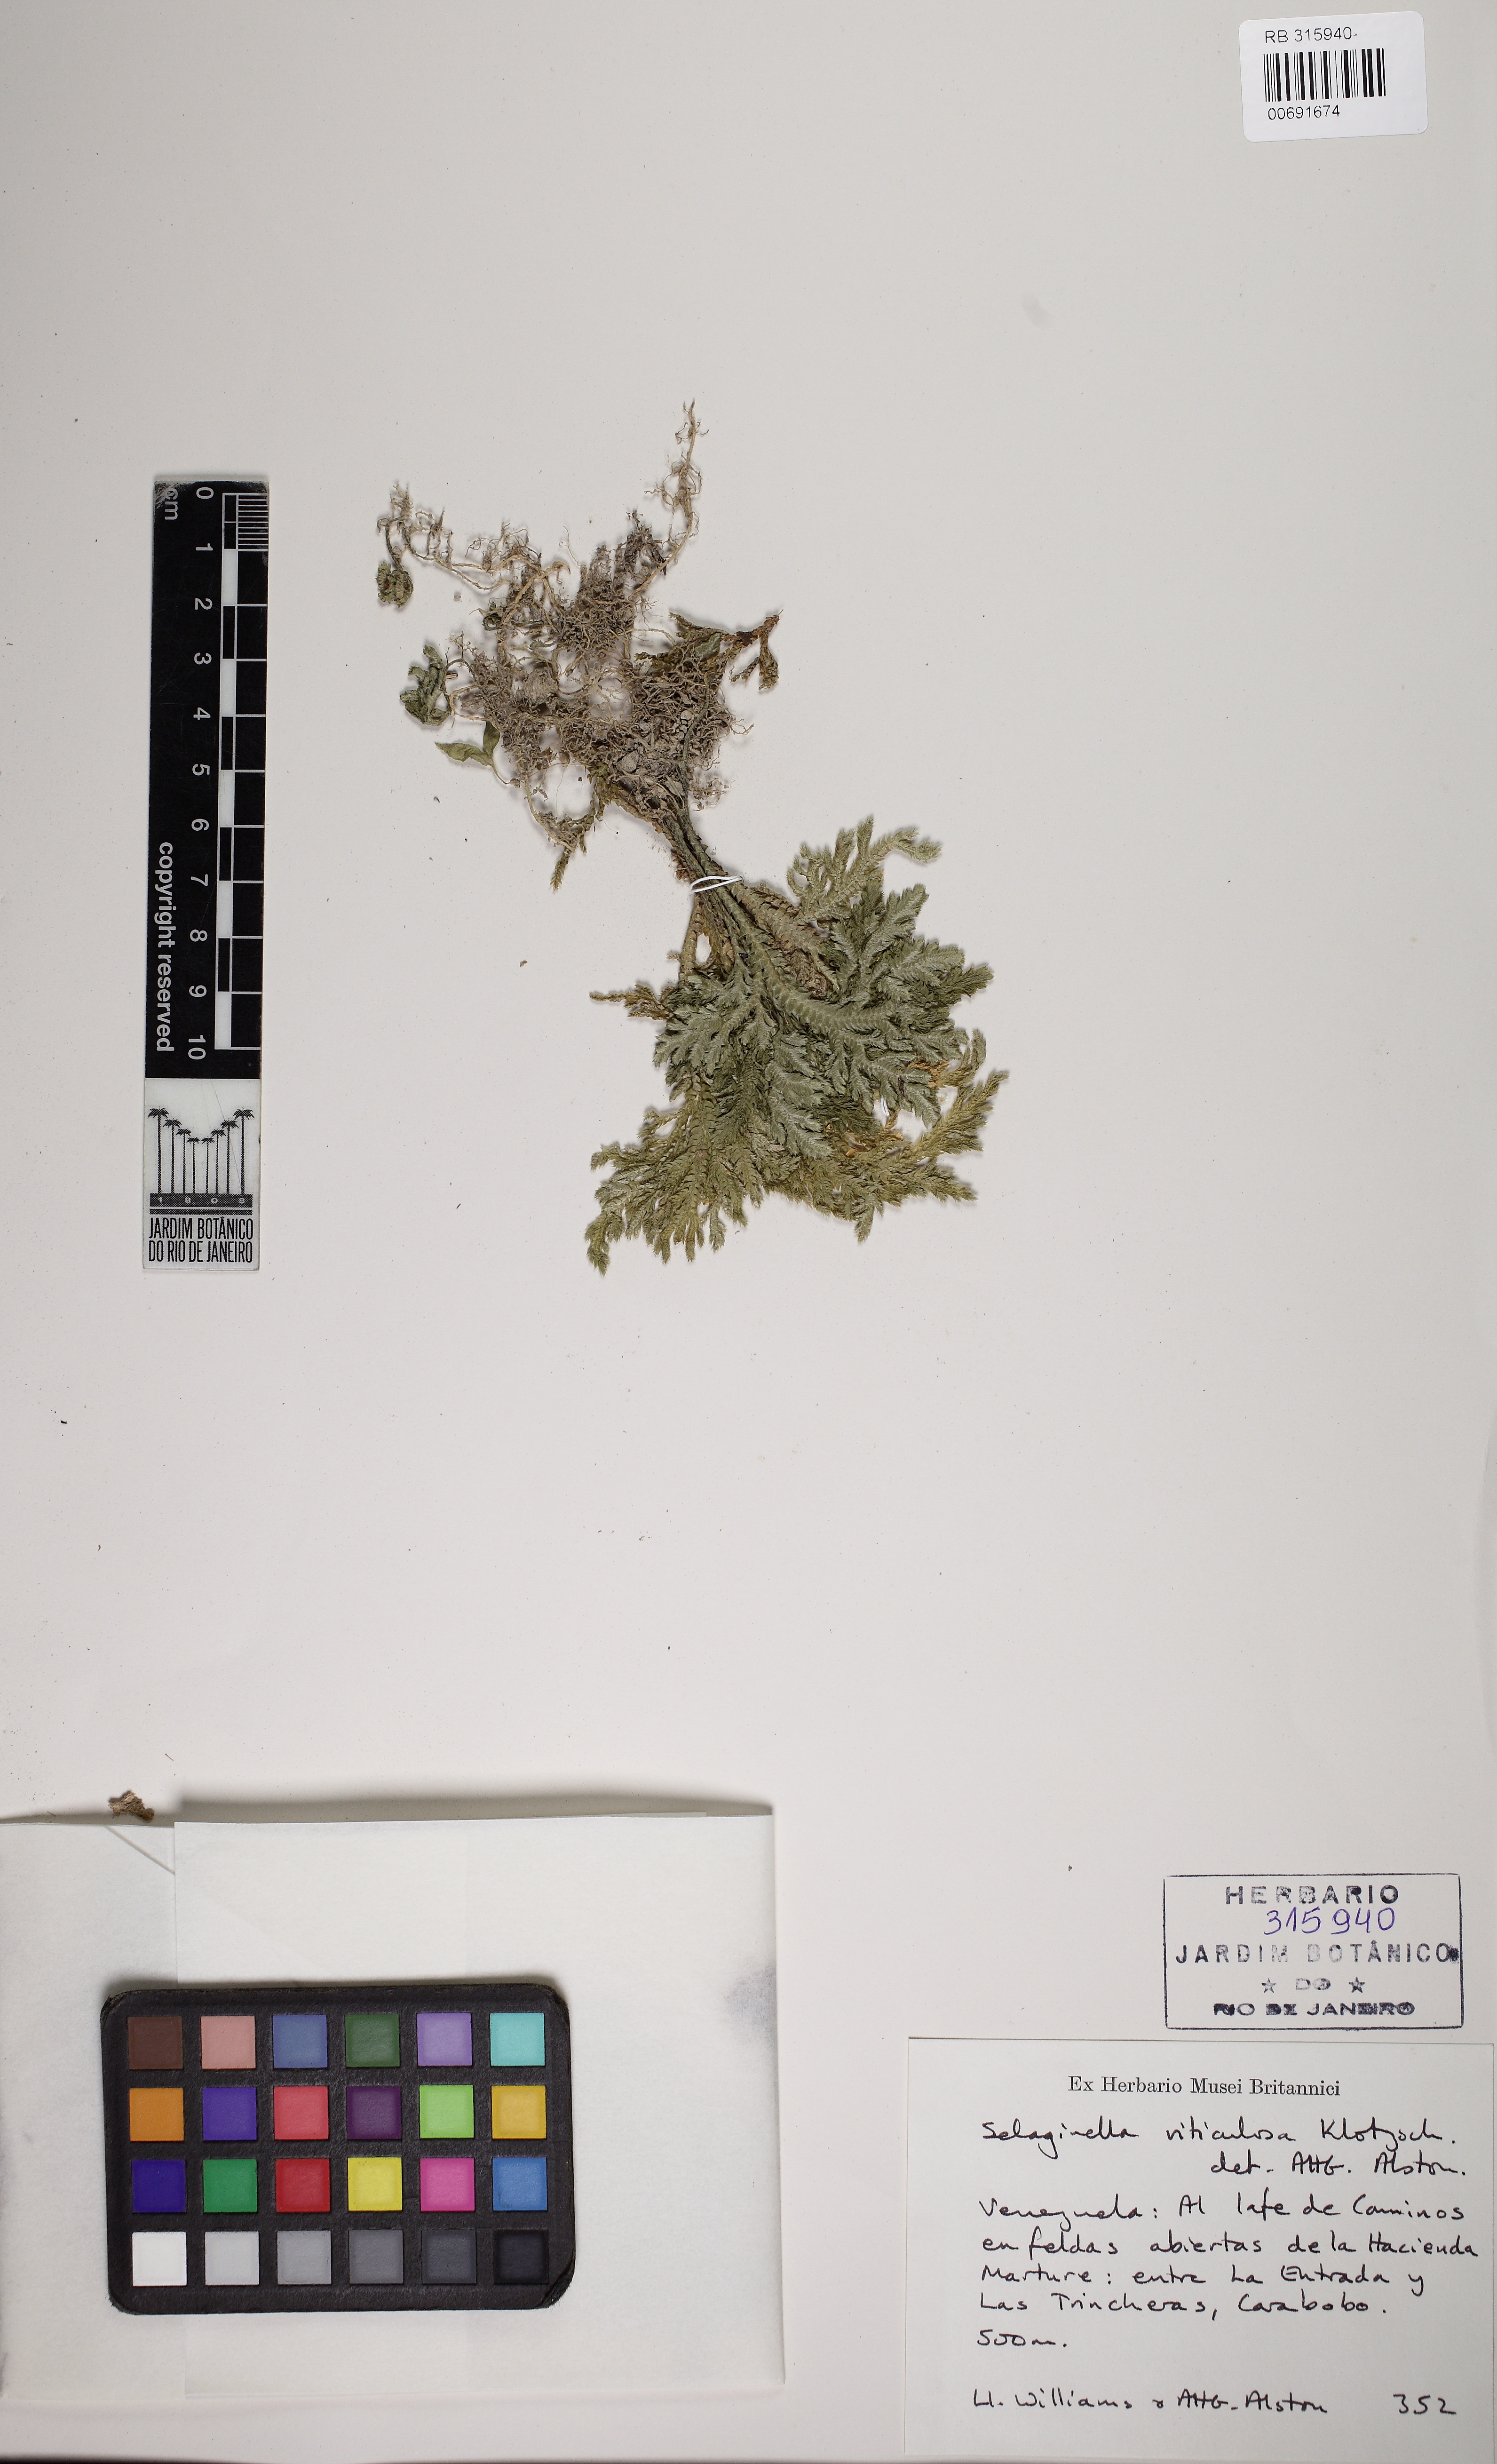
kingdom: Plantae
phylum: Tracheophyta
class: Lycopodiopsida
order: Selaginellales
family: Selaginellaceae
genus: Selaginella
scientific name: Selaginella viticulosa
